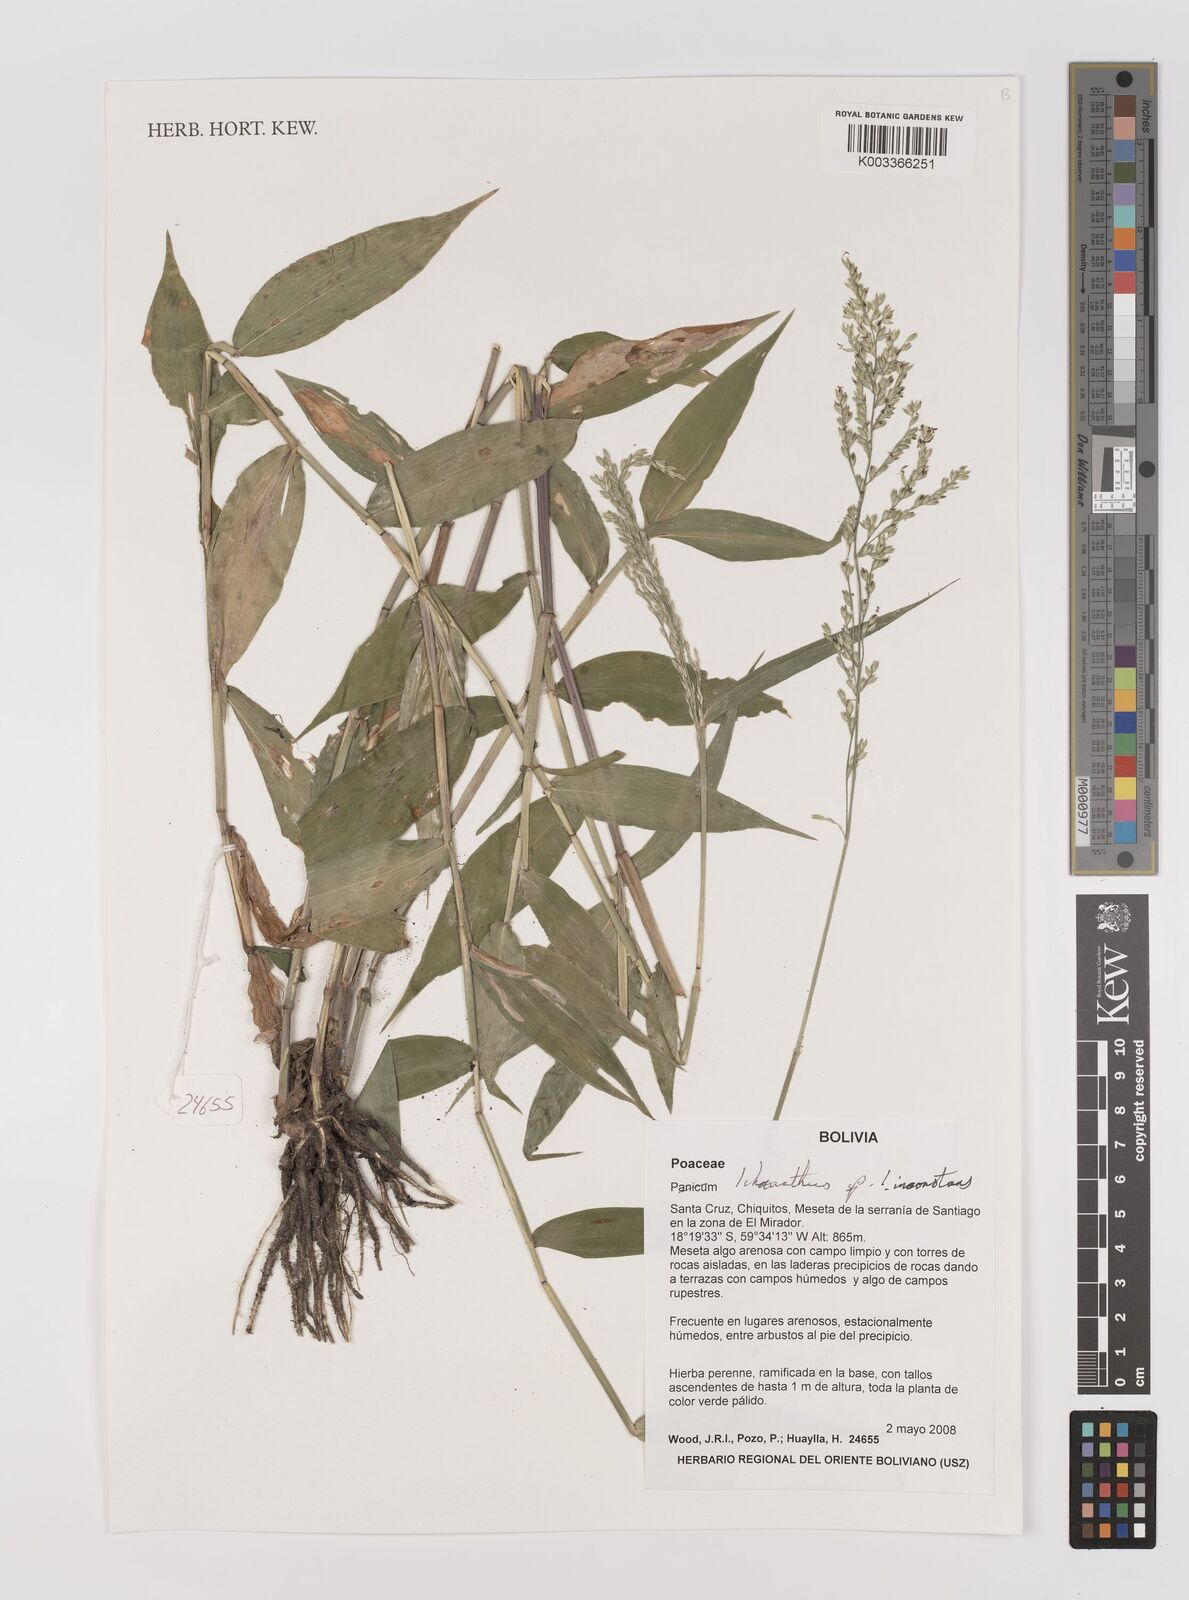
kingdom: Plantae
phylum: Tracheophyta
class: Liliopsida
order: Poales
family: Poaceae
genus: Ichnanthus
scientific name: Ichnanthus inconstans
